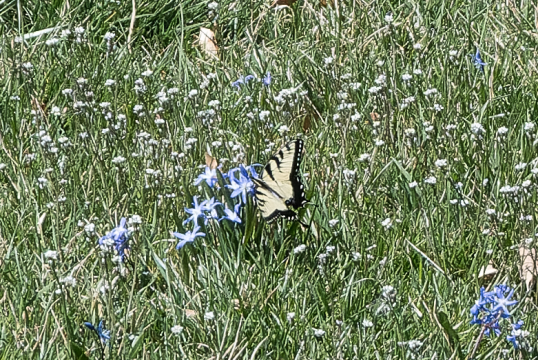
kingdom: Animalia
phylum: Arthropoda
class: Insecta
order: Lepidoptera
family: Papilionidae
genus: Pterourus
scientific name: Pterourus glaucus
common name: Eastern Tiger Swallowtail
